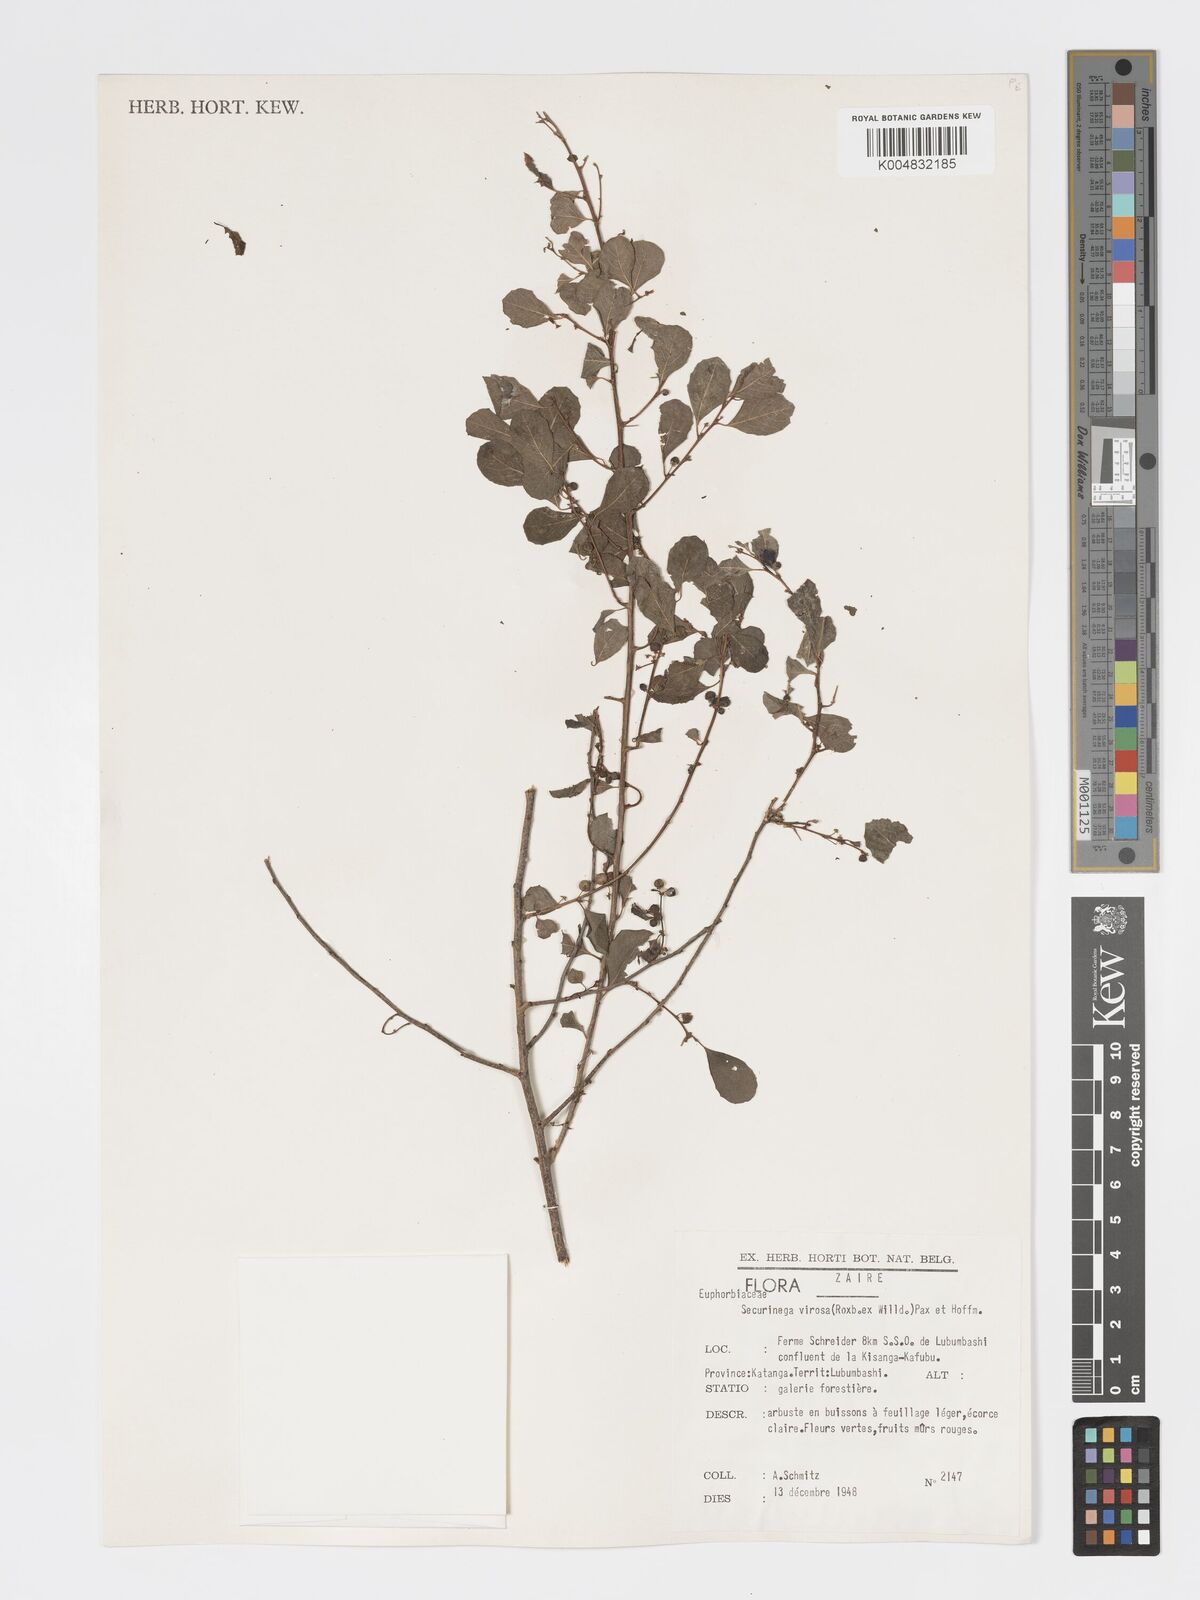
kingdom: Plantae
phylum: Tracheophyta
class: Magnoliopsida
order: Malpighiales
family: Phyllanthaceae
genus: Flueggea
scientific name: Flueggea virosa
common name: Common bushweed
